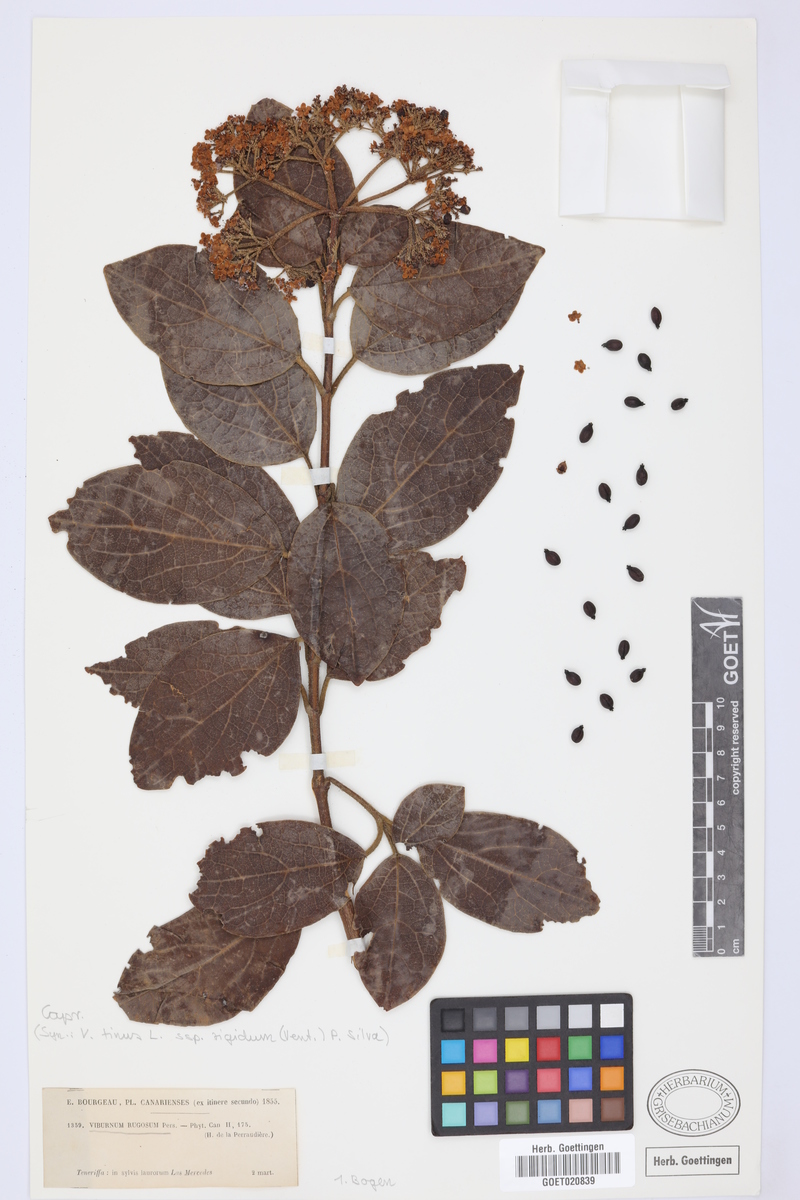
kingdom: Plantae
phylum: Tracheophyta
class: Magnoliopsida
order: Dipsacales
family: Viburnaceae
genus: Viburnum
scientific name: Viburnum rugosum
